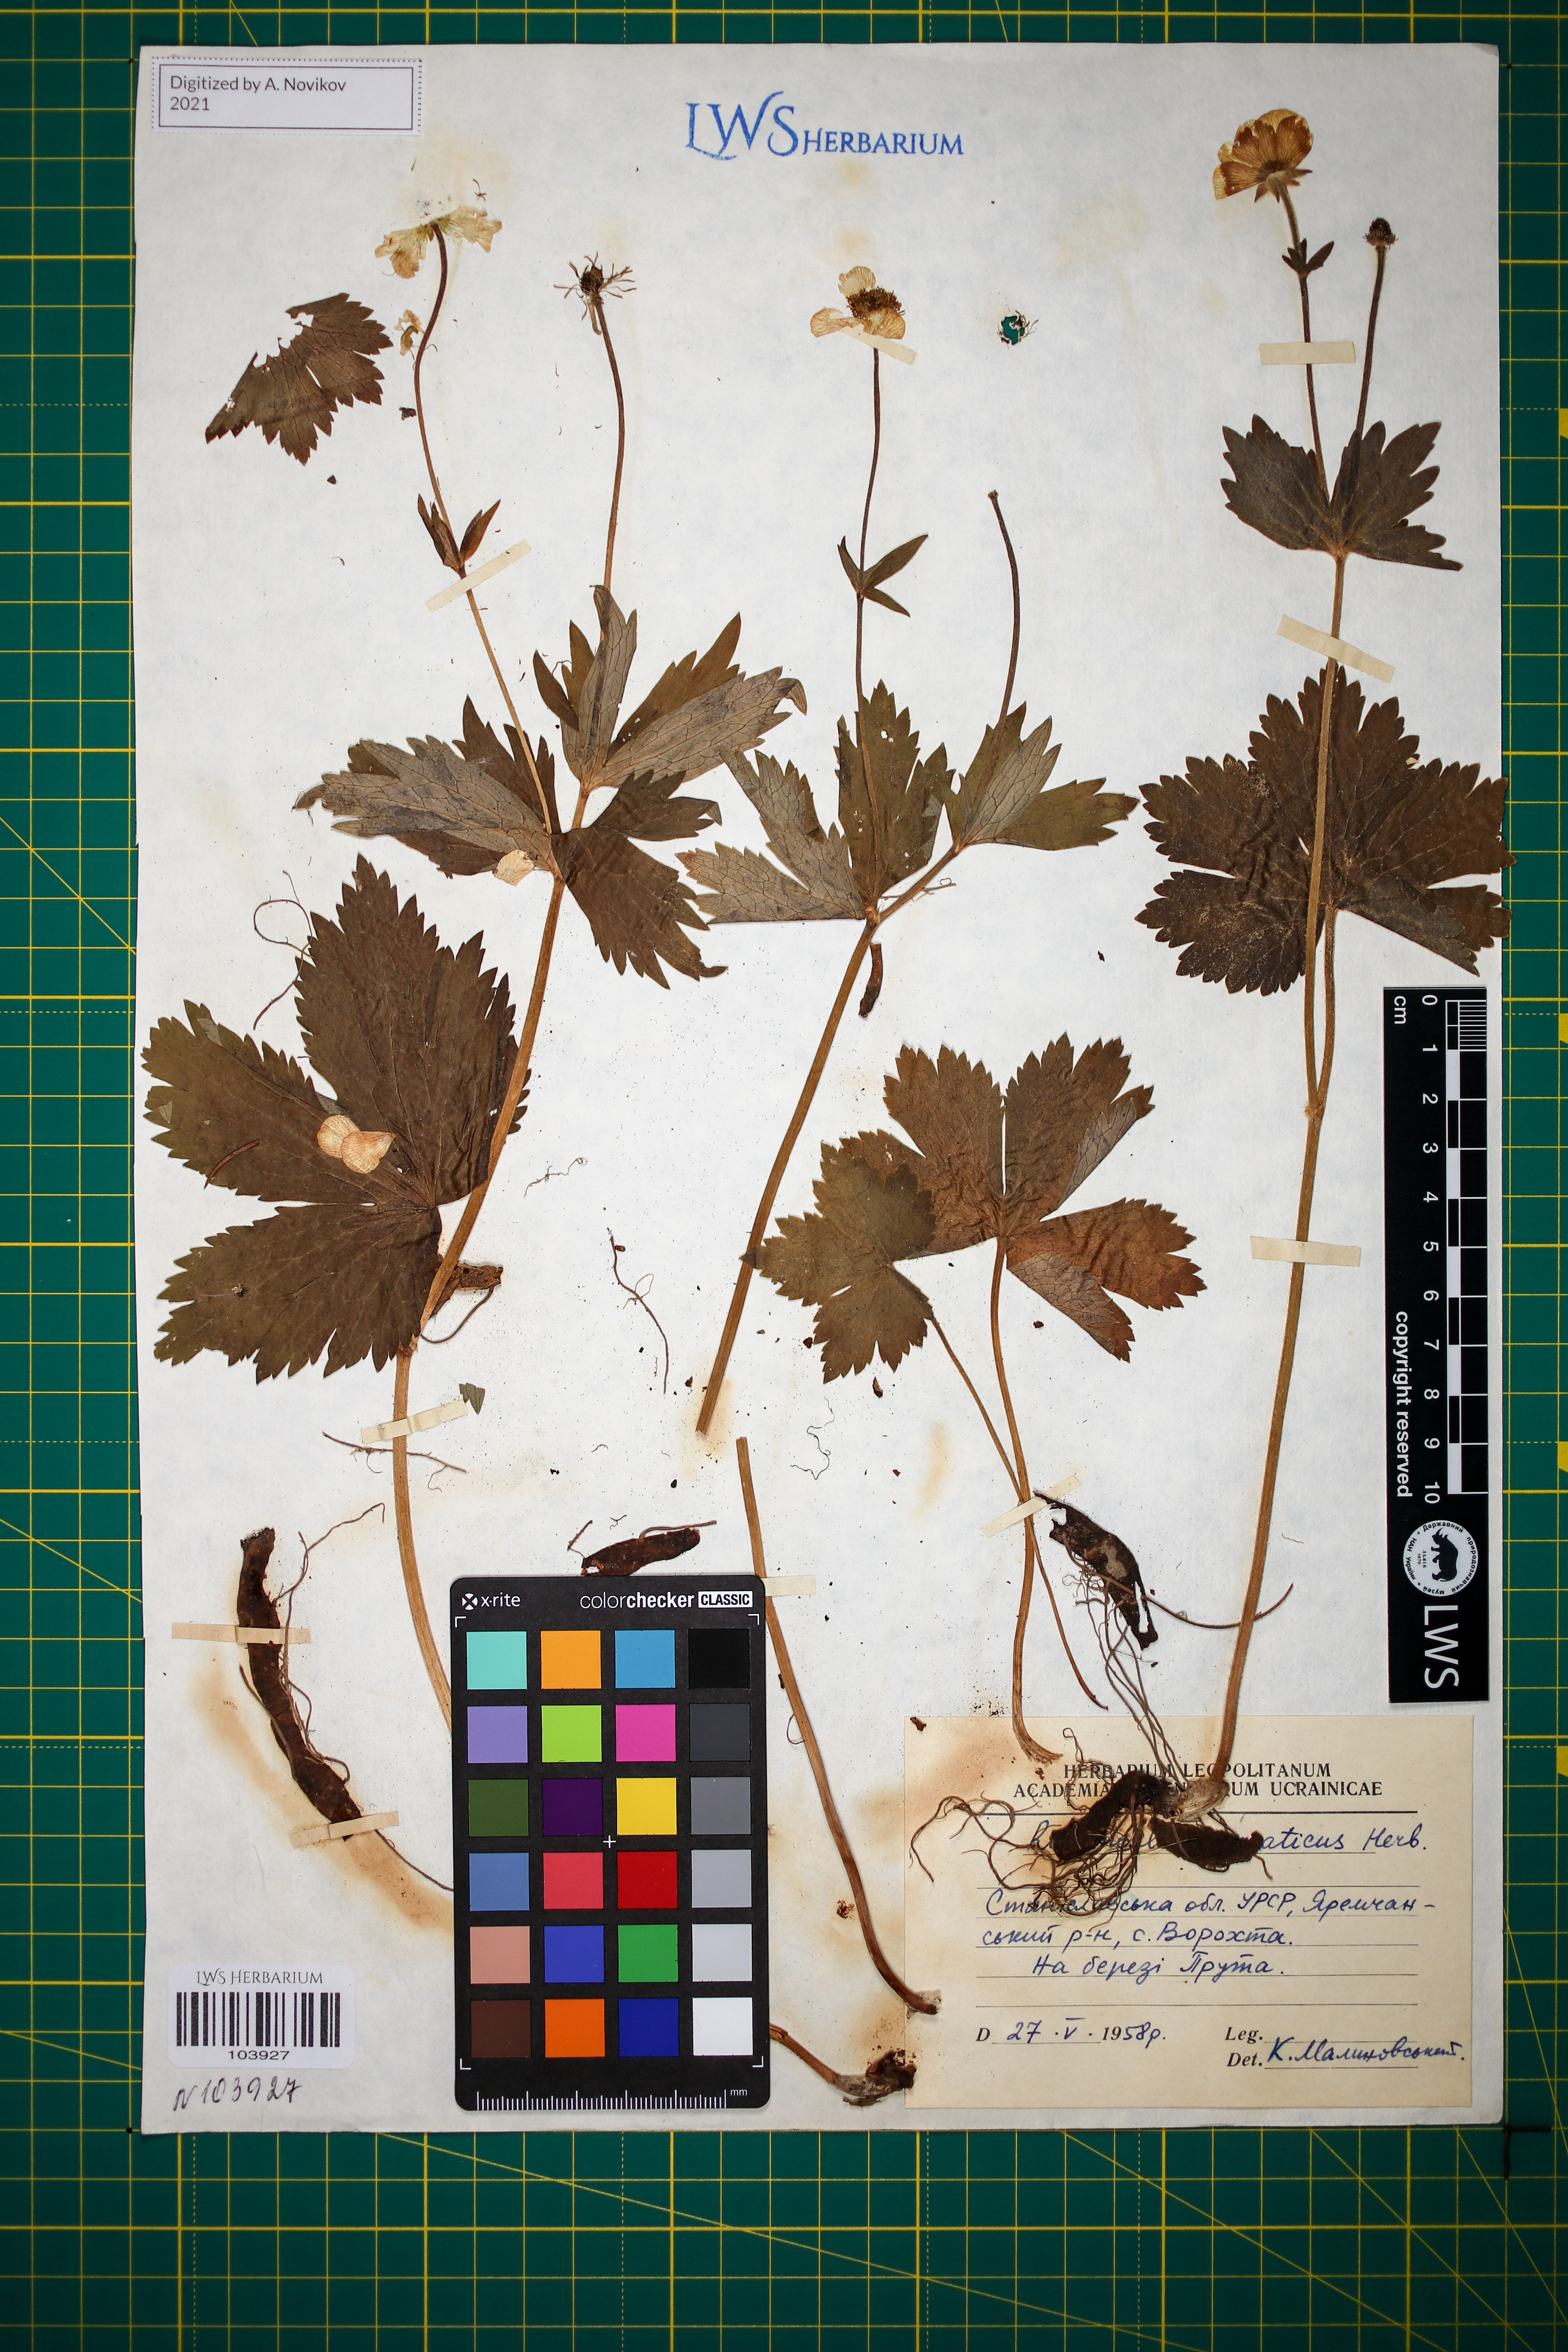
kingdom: Plantae
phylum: Tracheophyta
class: Magnoliopsida
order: Ranunculales
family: Ranunculaceae
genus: Ranunculus
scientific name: Ranunculus carpaticus
